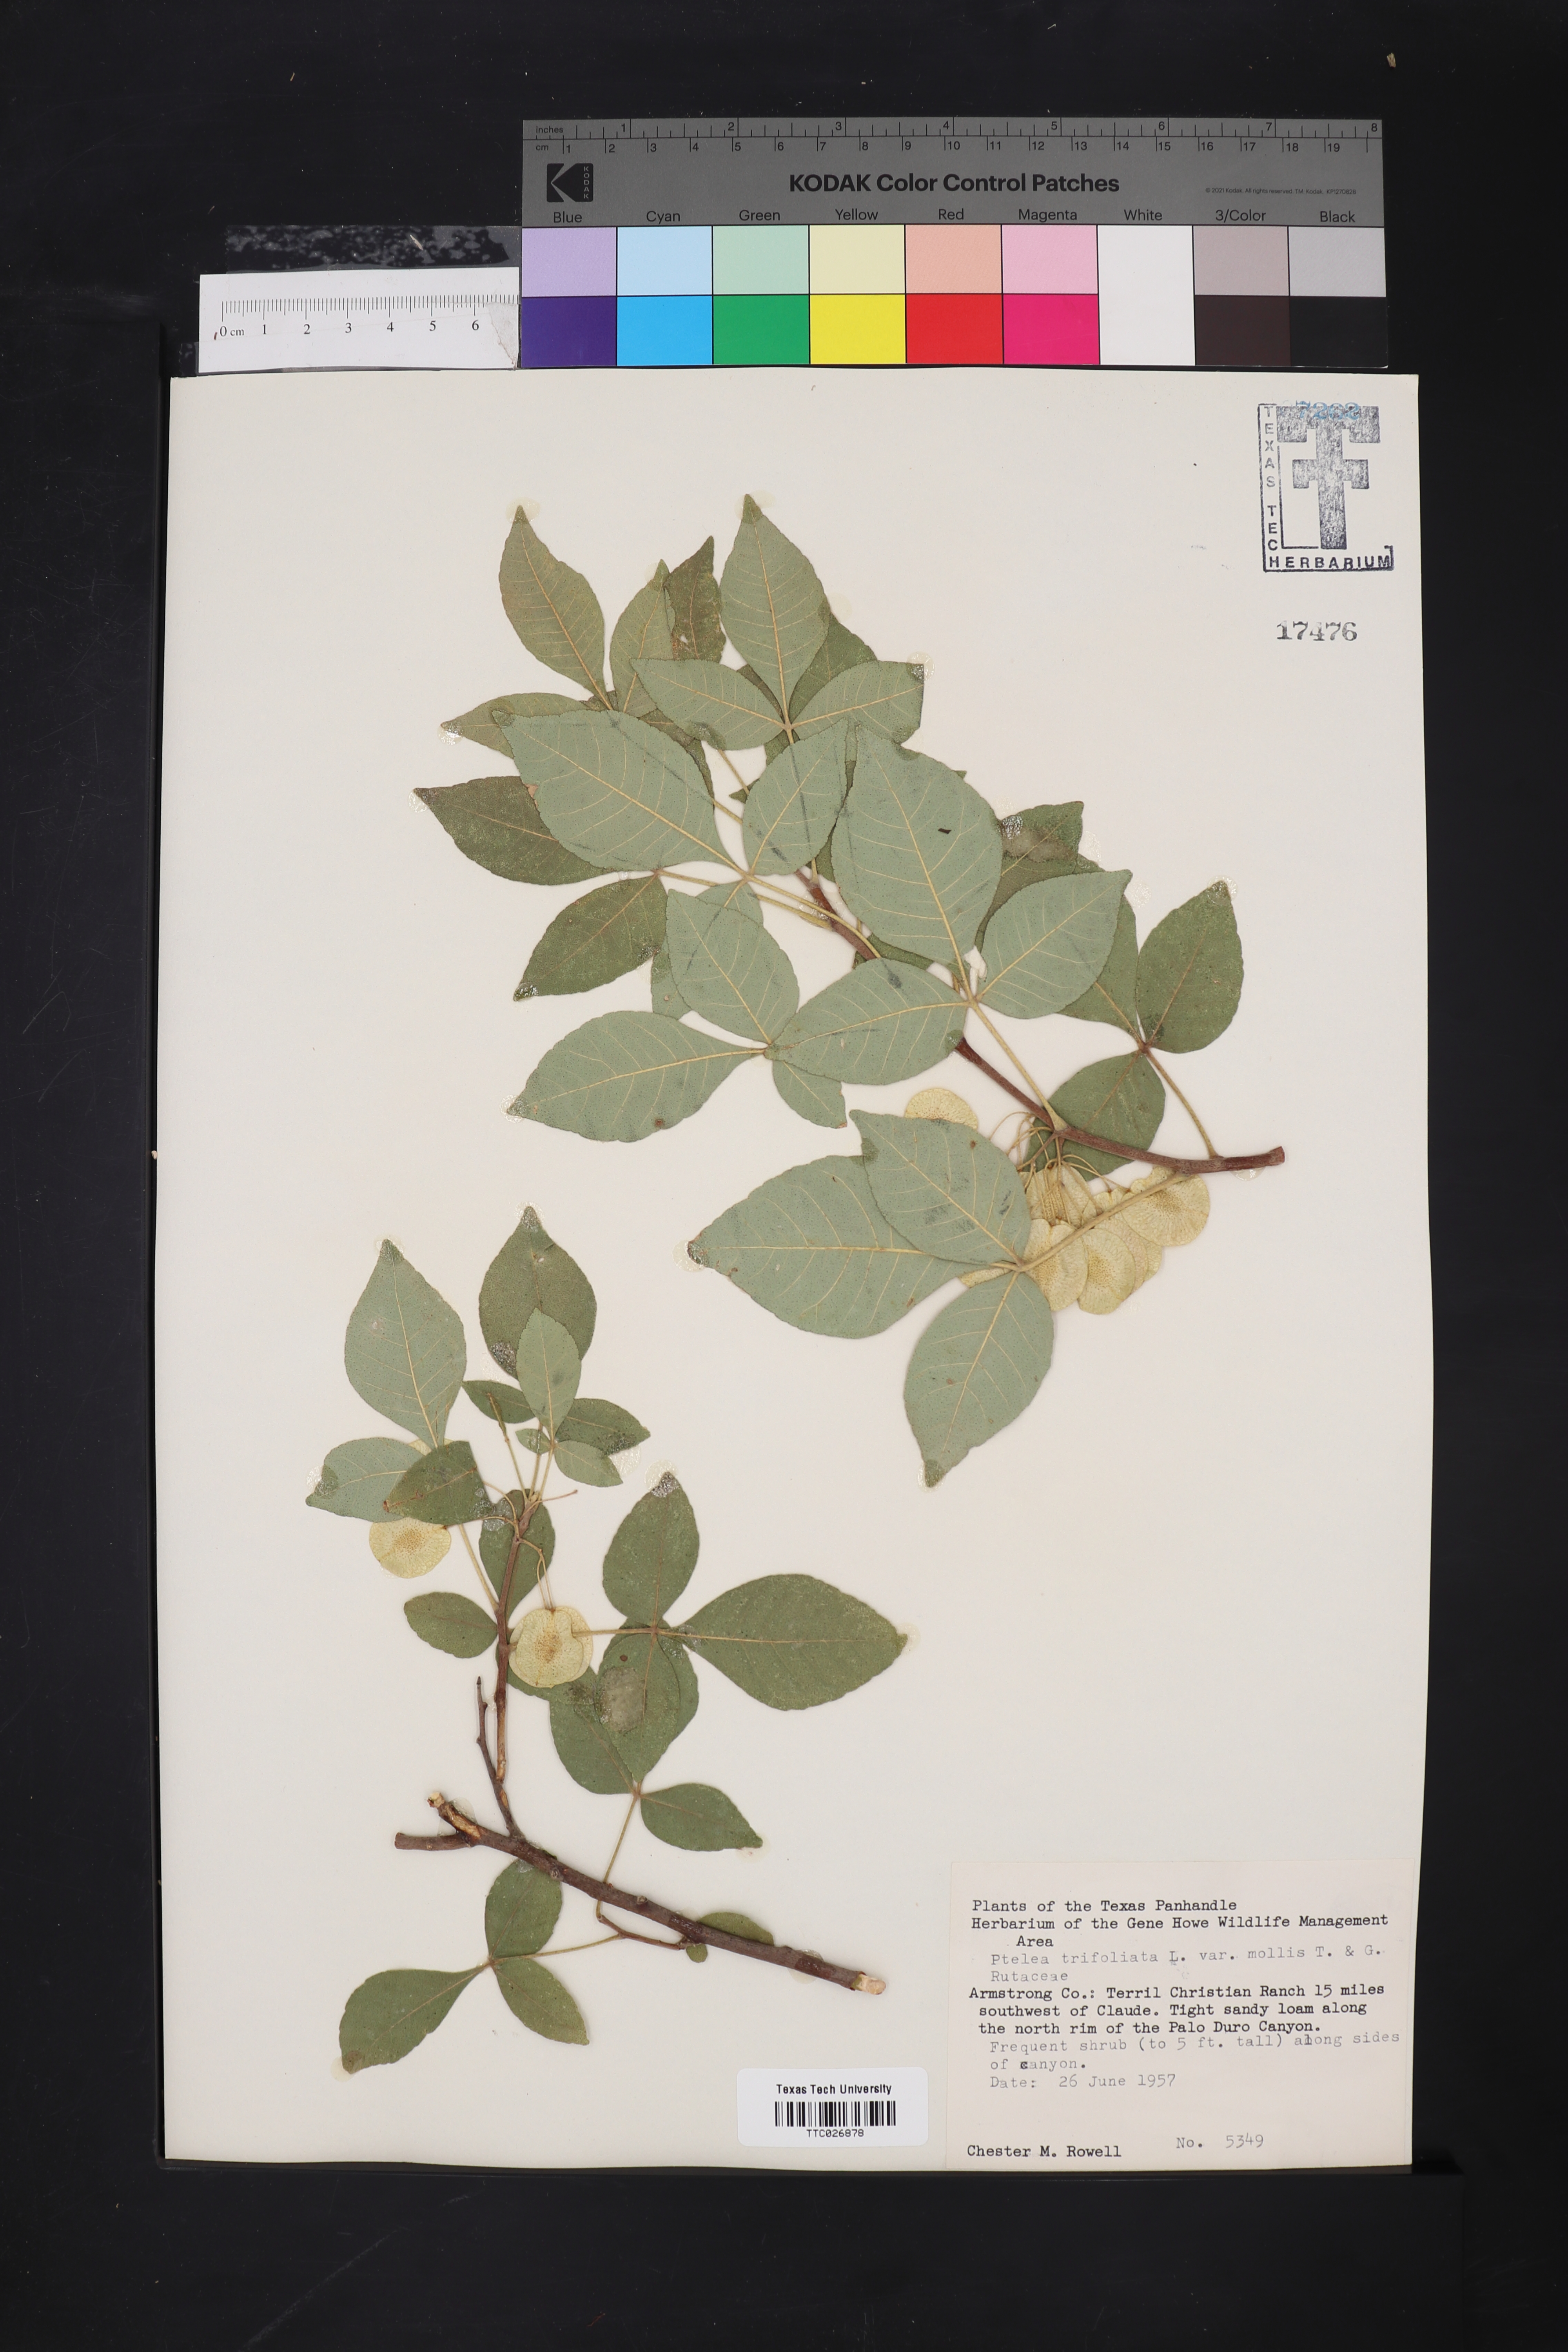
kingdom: Plantae
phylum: Tracheophyta
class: Magnoliopsida
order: Sapindales
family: Rutaceae
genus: Ptelea
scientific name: Ptelea trifoliata
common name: Common hop-tree
